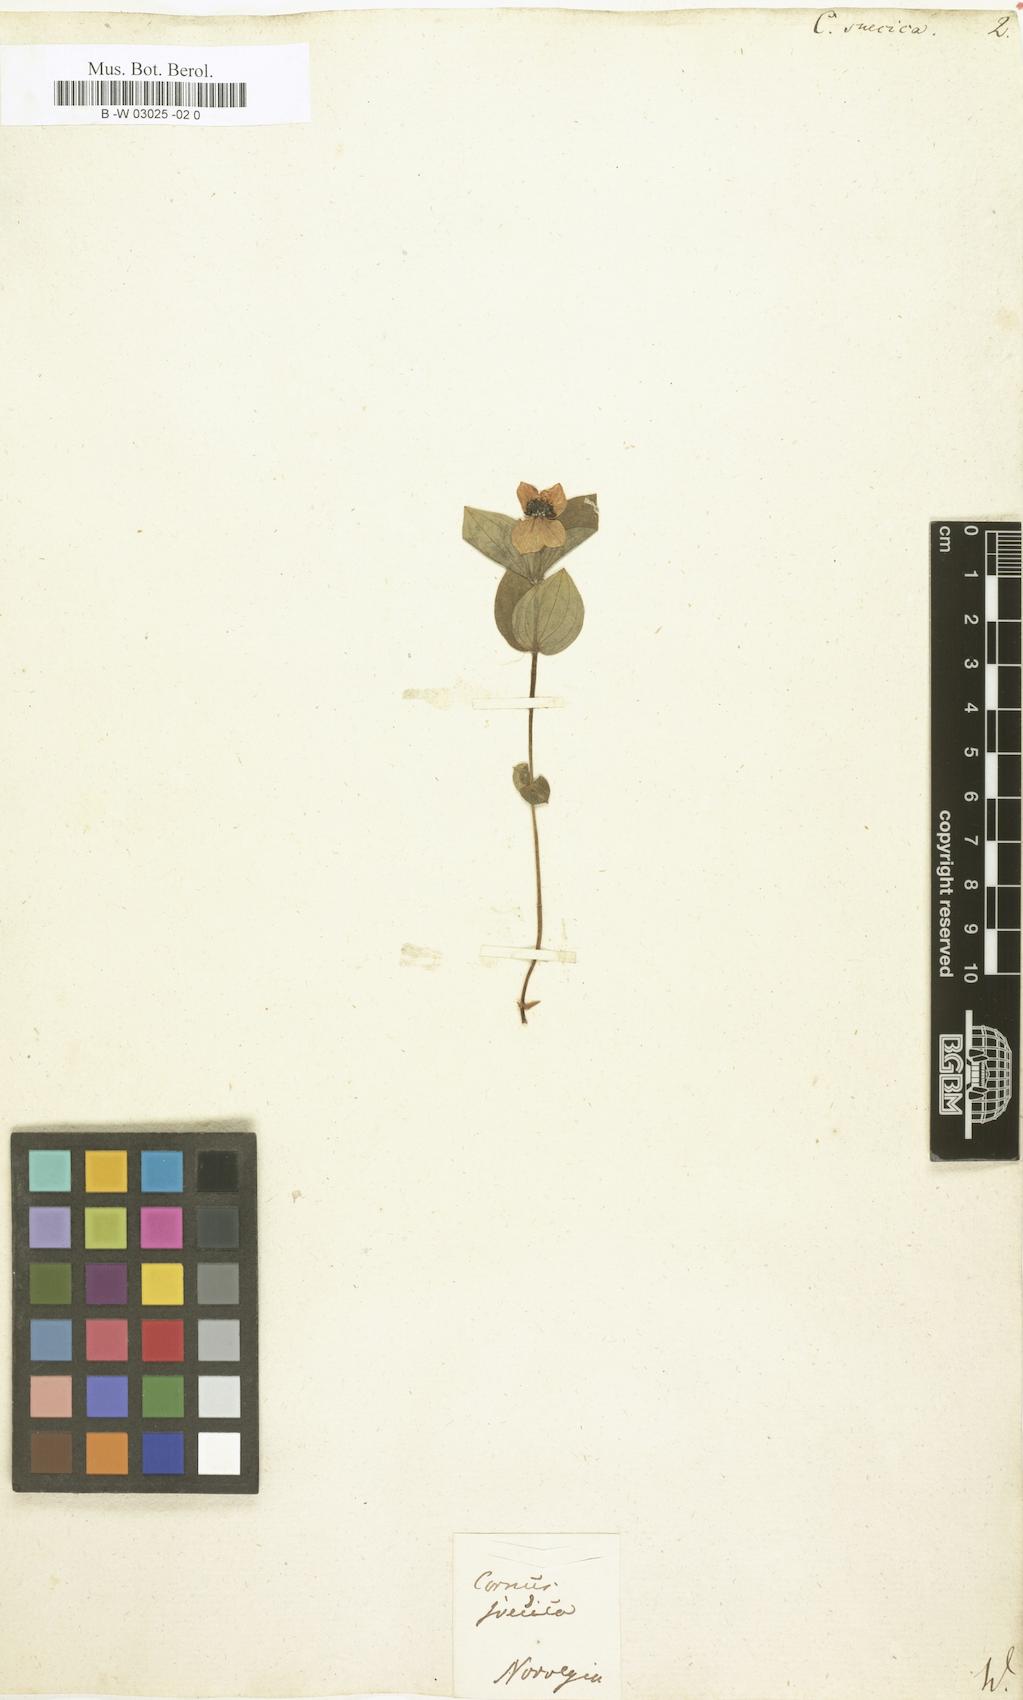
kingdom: Plantae
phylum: Tracheophyta
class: Magnoliopsida
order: Cornales
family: Cornaceae
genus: Cornus
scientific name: Cornus suecica
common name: Dwarf cornel
